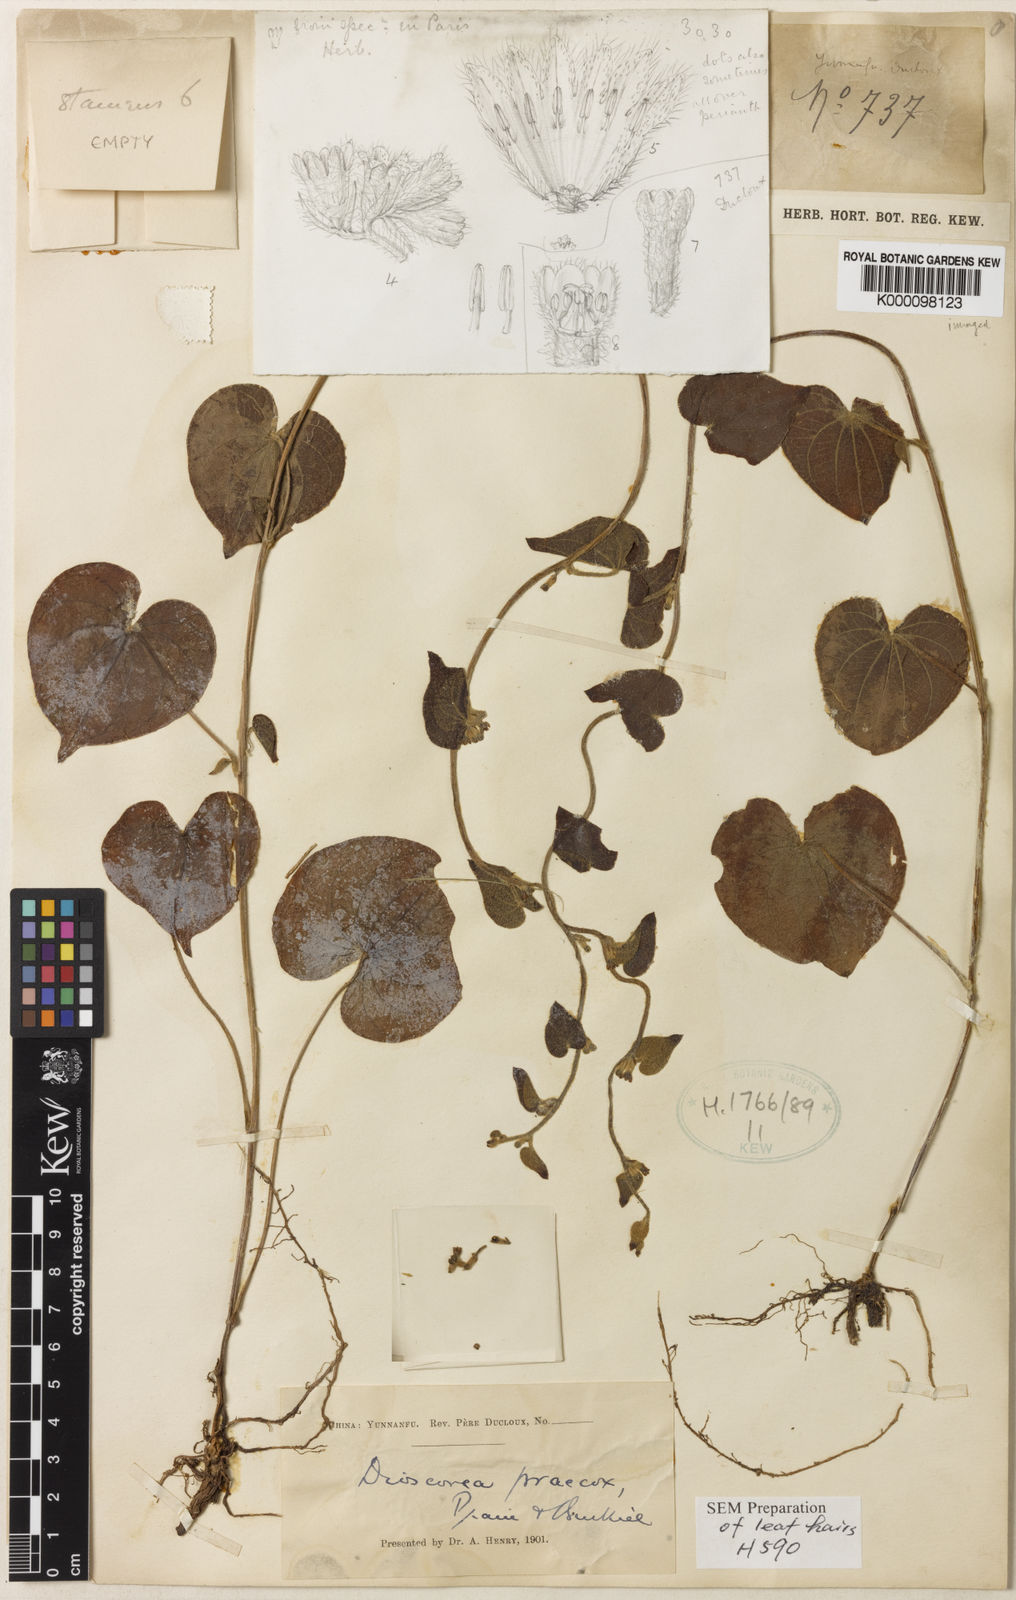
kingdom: Plantae
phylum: Tracheophyta
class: Liliopsida
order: Dioscoreales
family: Dioscoreaceae
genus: Dioscorea
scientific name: Dioscorea hemsleyi
